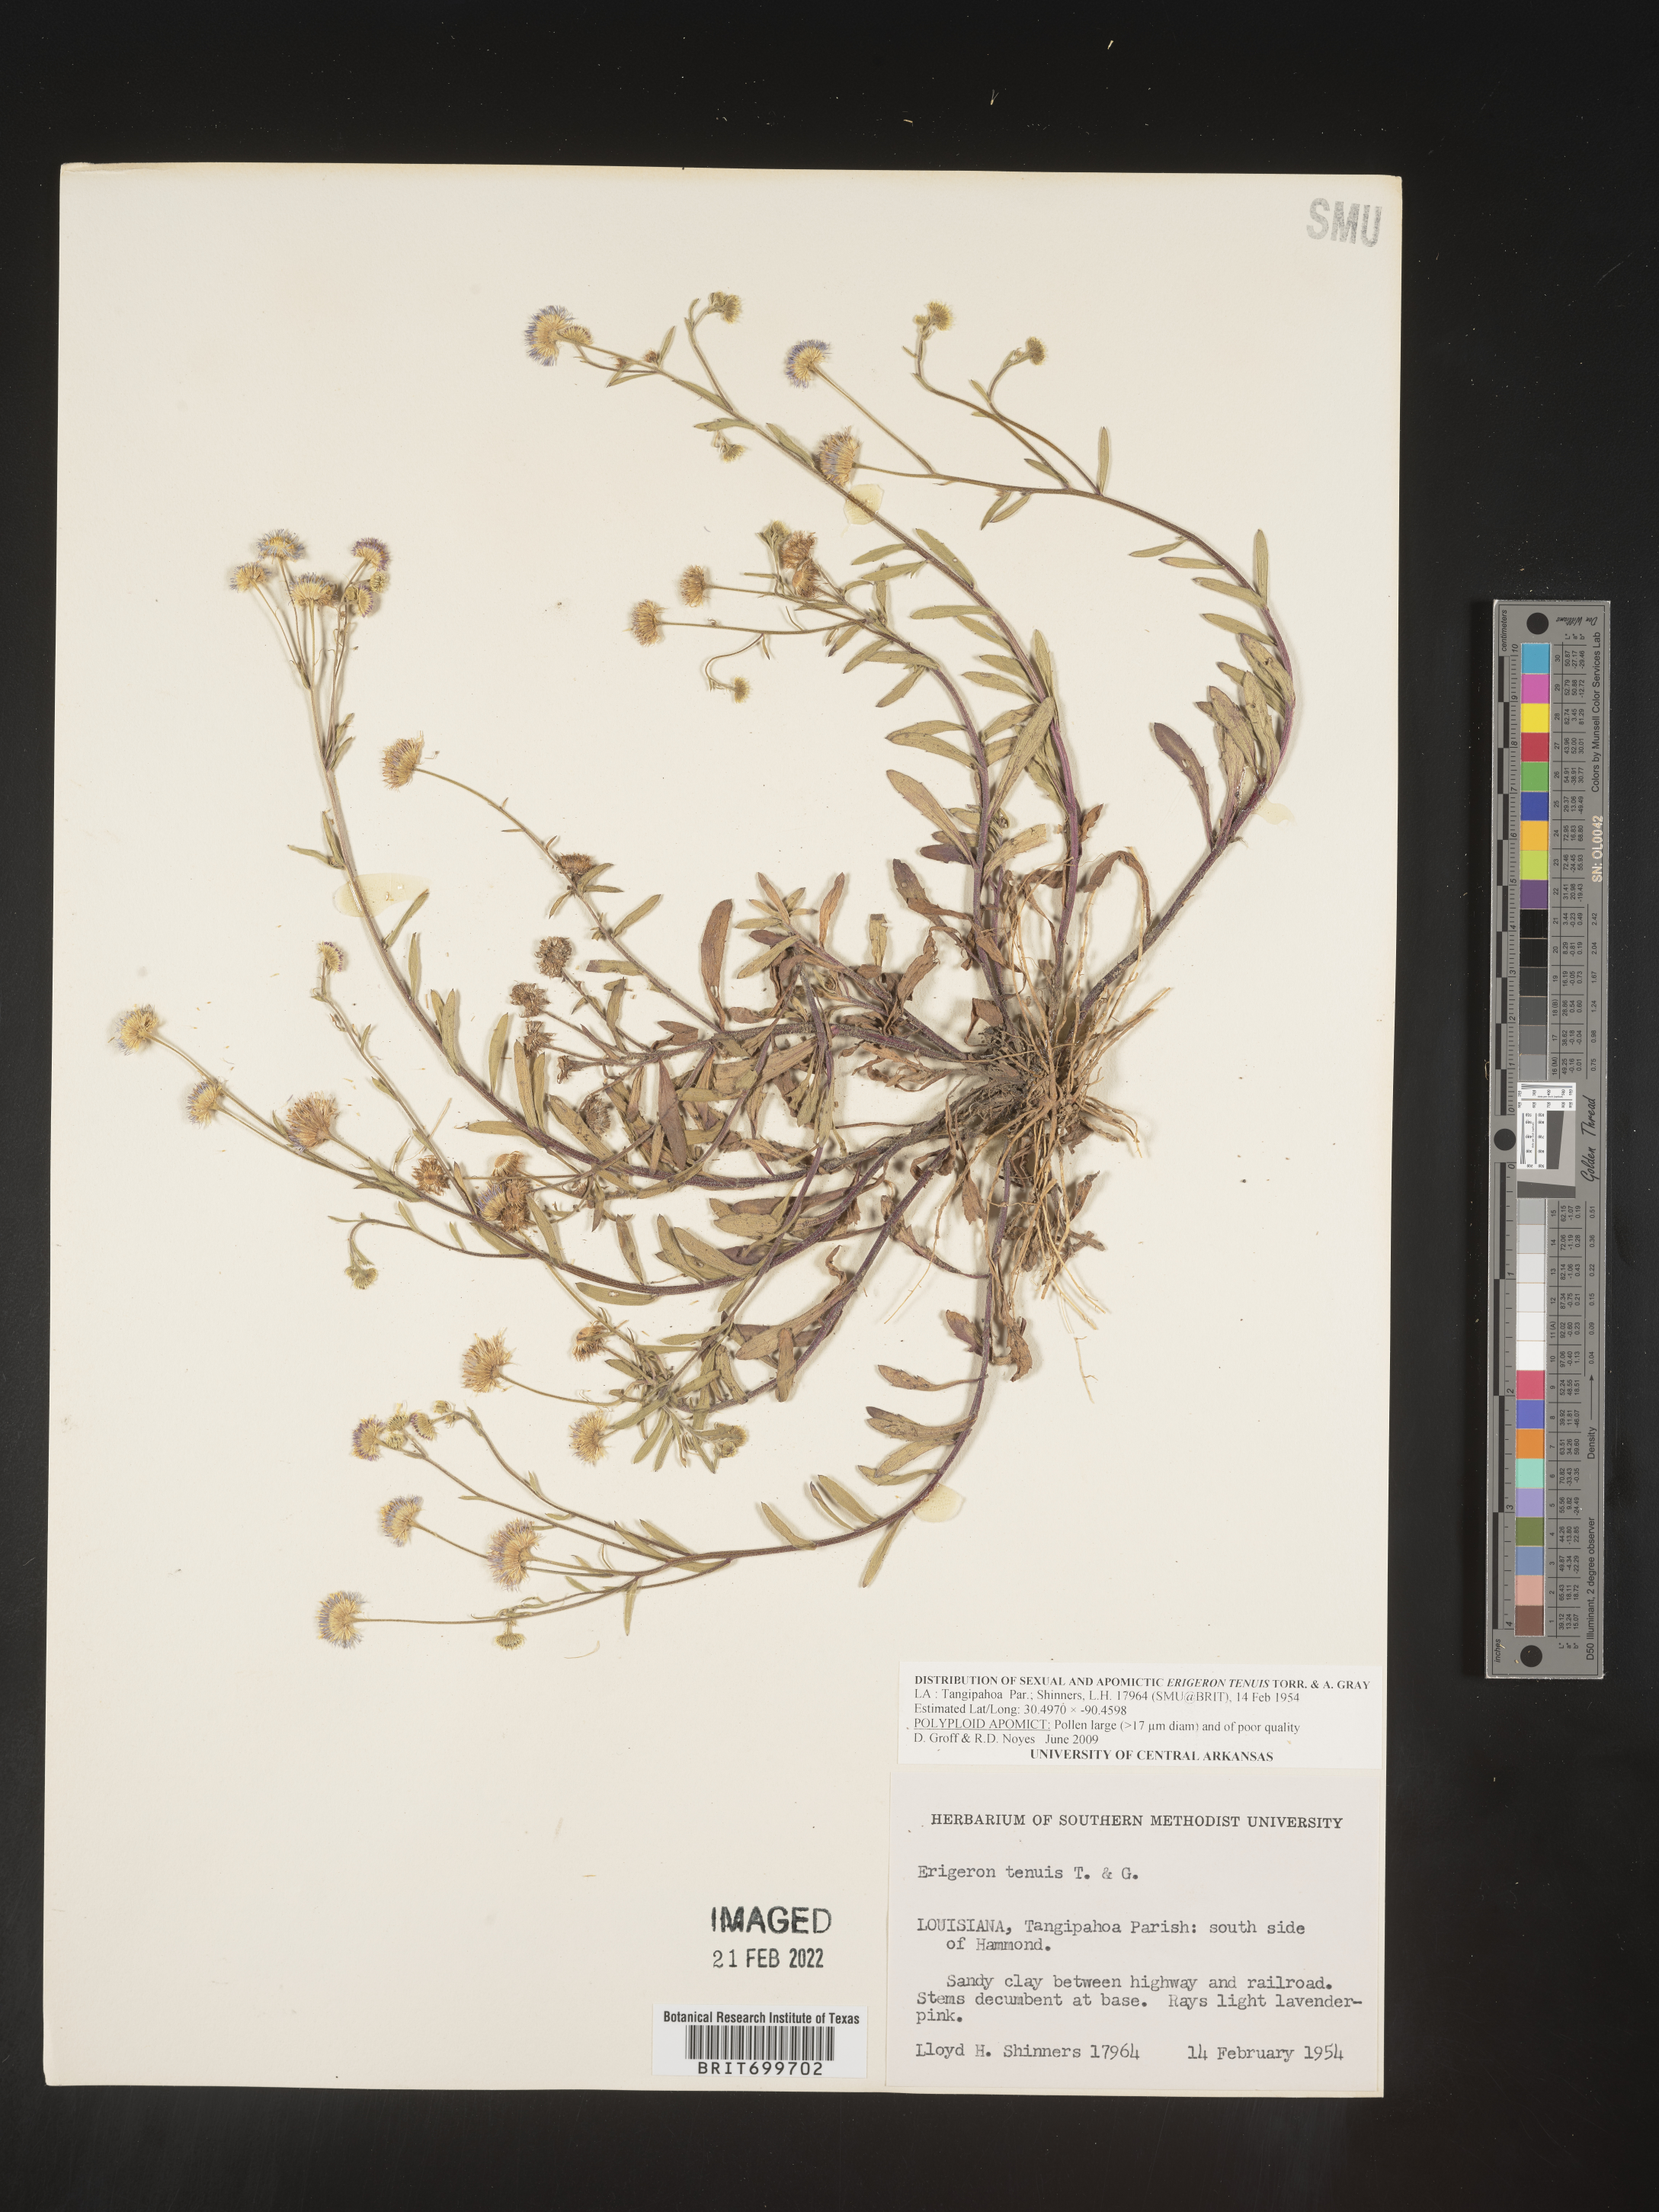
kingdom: Plantae
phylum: Tracheophyta
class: Magnoliopsida
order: Asterales
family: Asteraceae
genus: Erigeron
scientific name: Erigeron tenuis
